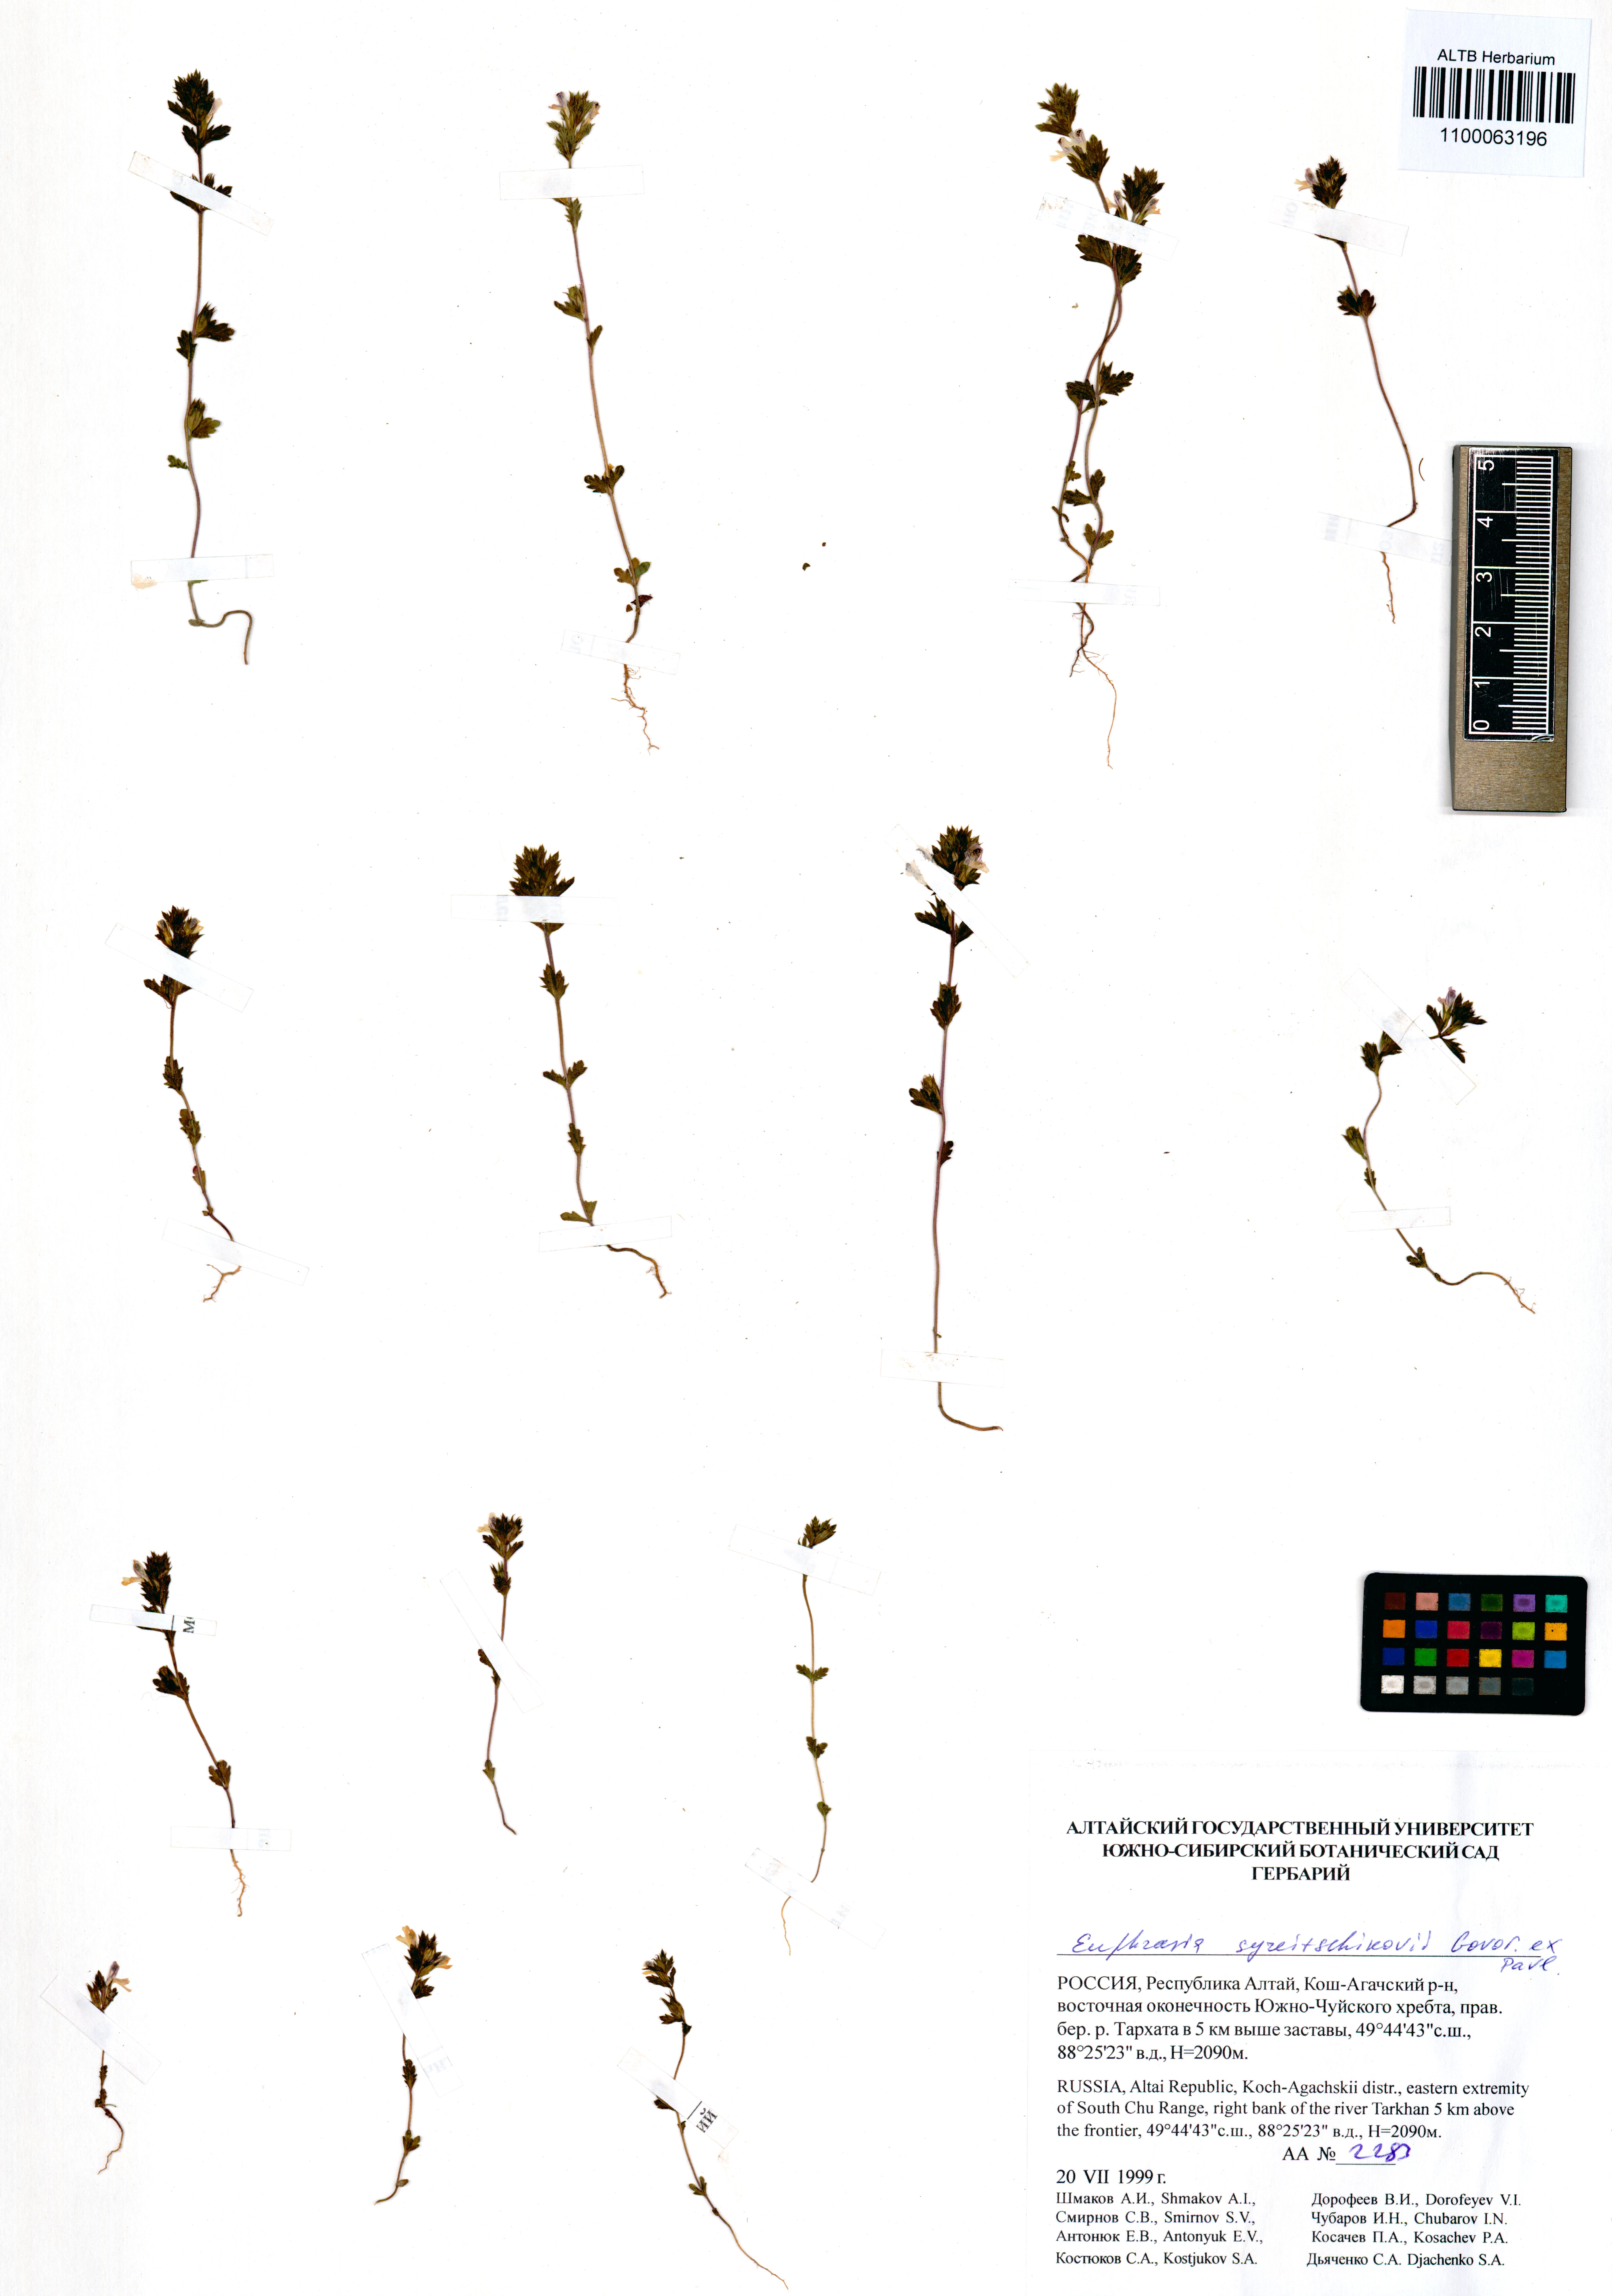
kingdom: Plantae
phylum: Tracheophyta
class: Magnoliopsida
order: Lamiales
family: Orobanchaceae
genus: Euphrasia
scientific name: Euphrasia syreitschikovii
